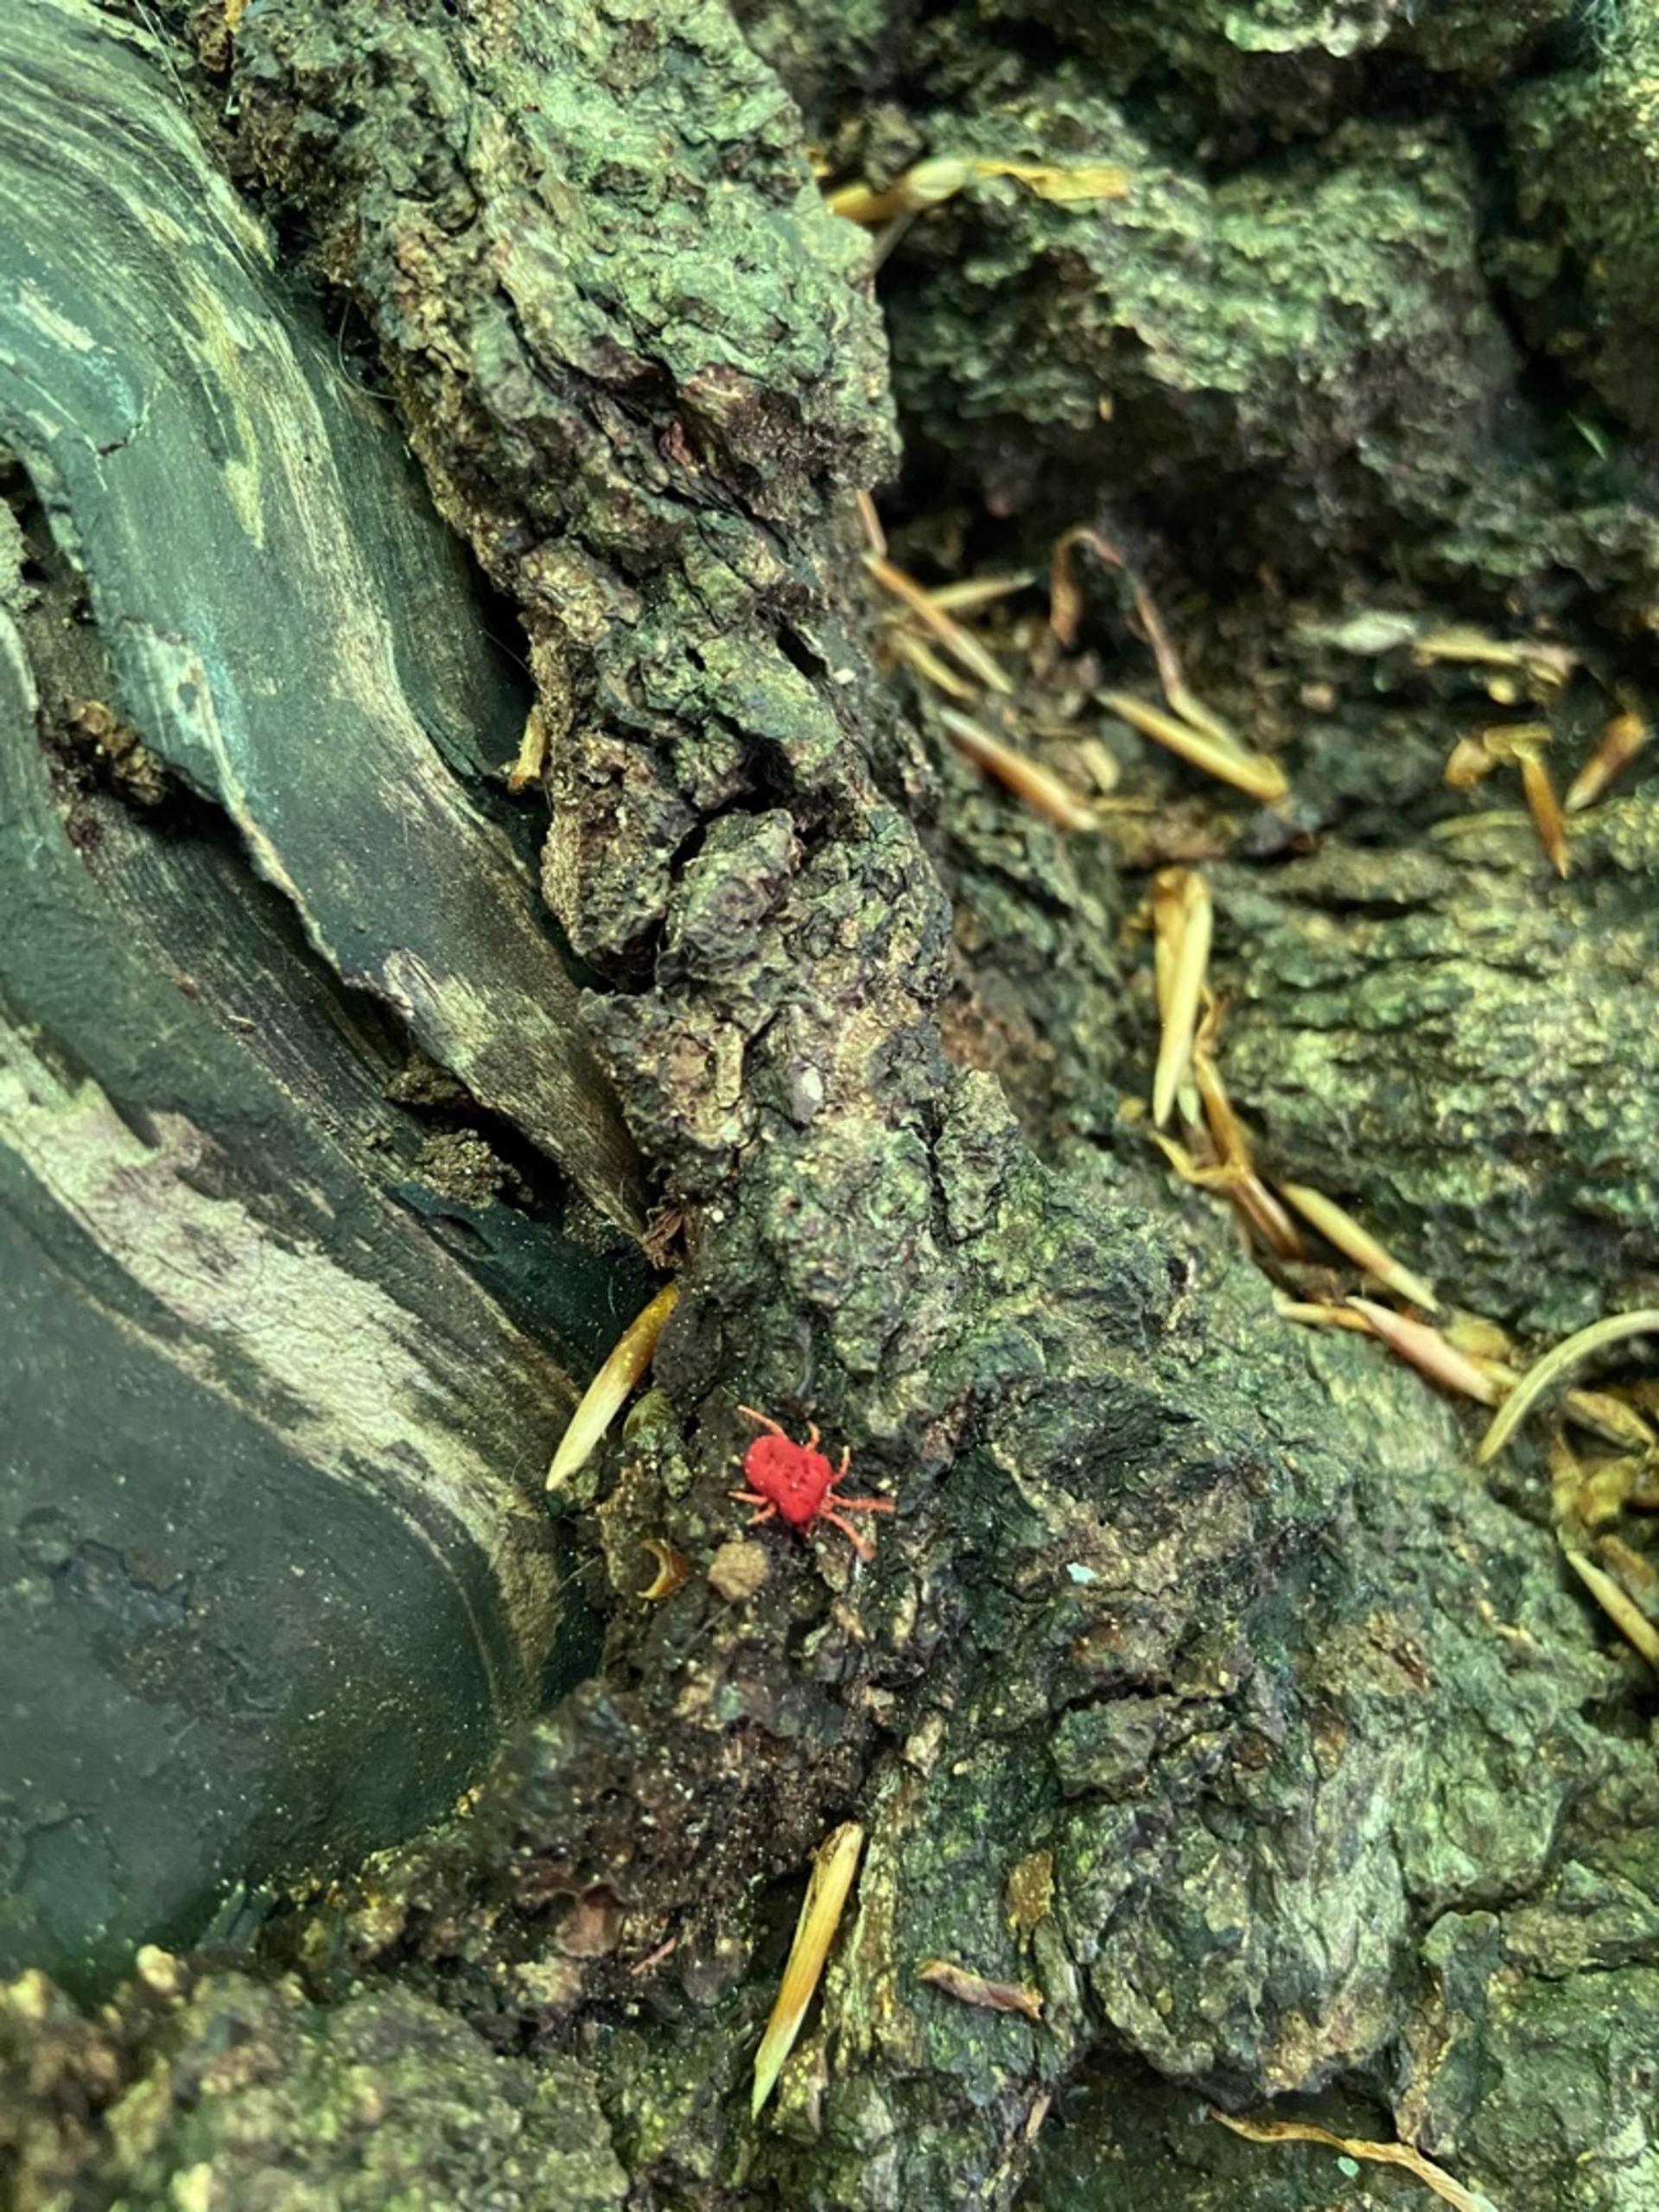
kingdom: Animalia
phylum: Arthropoda
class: Arachnida
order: Trombidiformes
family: Trombidiidae
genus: Trombidium
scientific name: Trombidium holosericeum
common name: Rød jordmide
